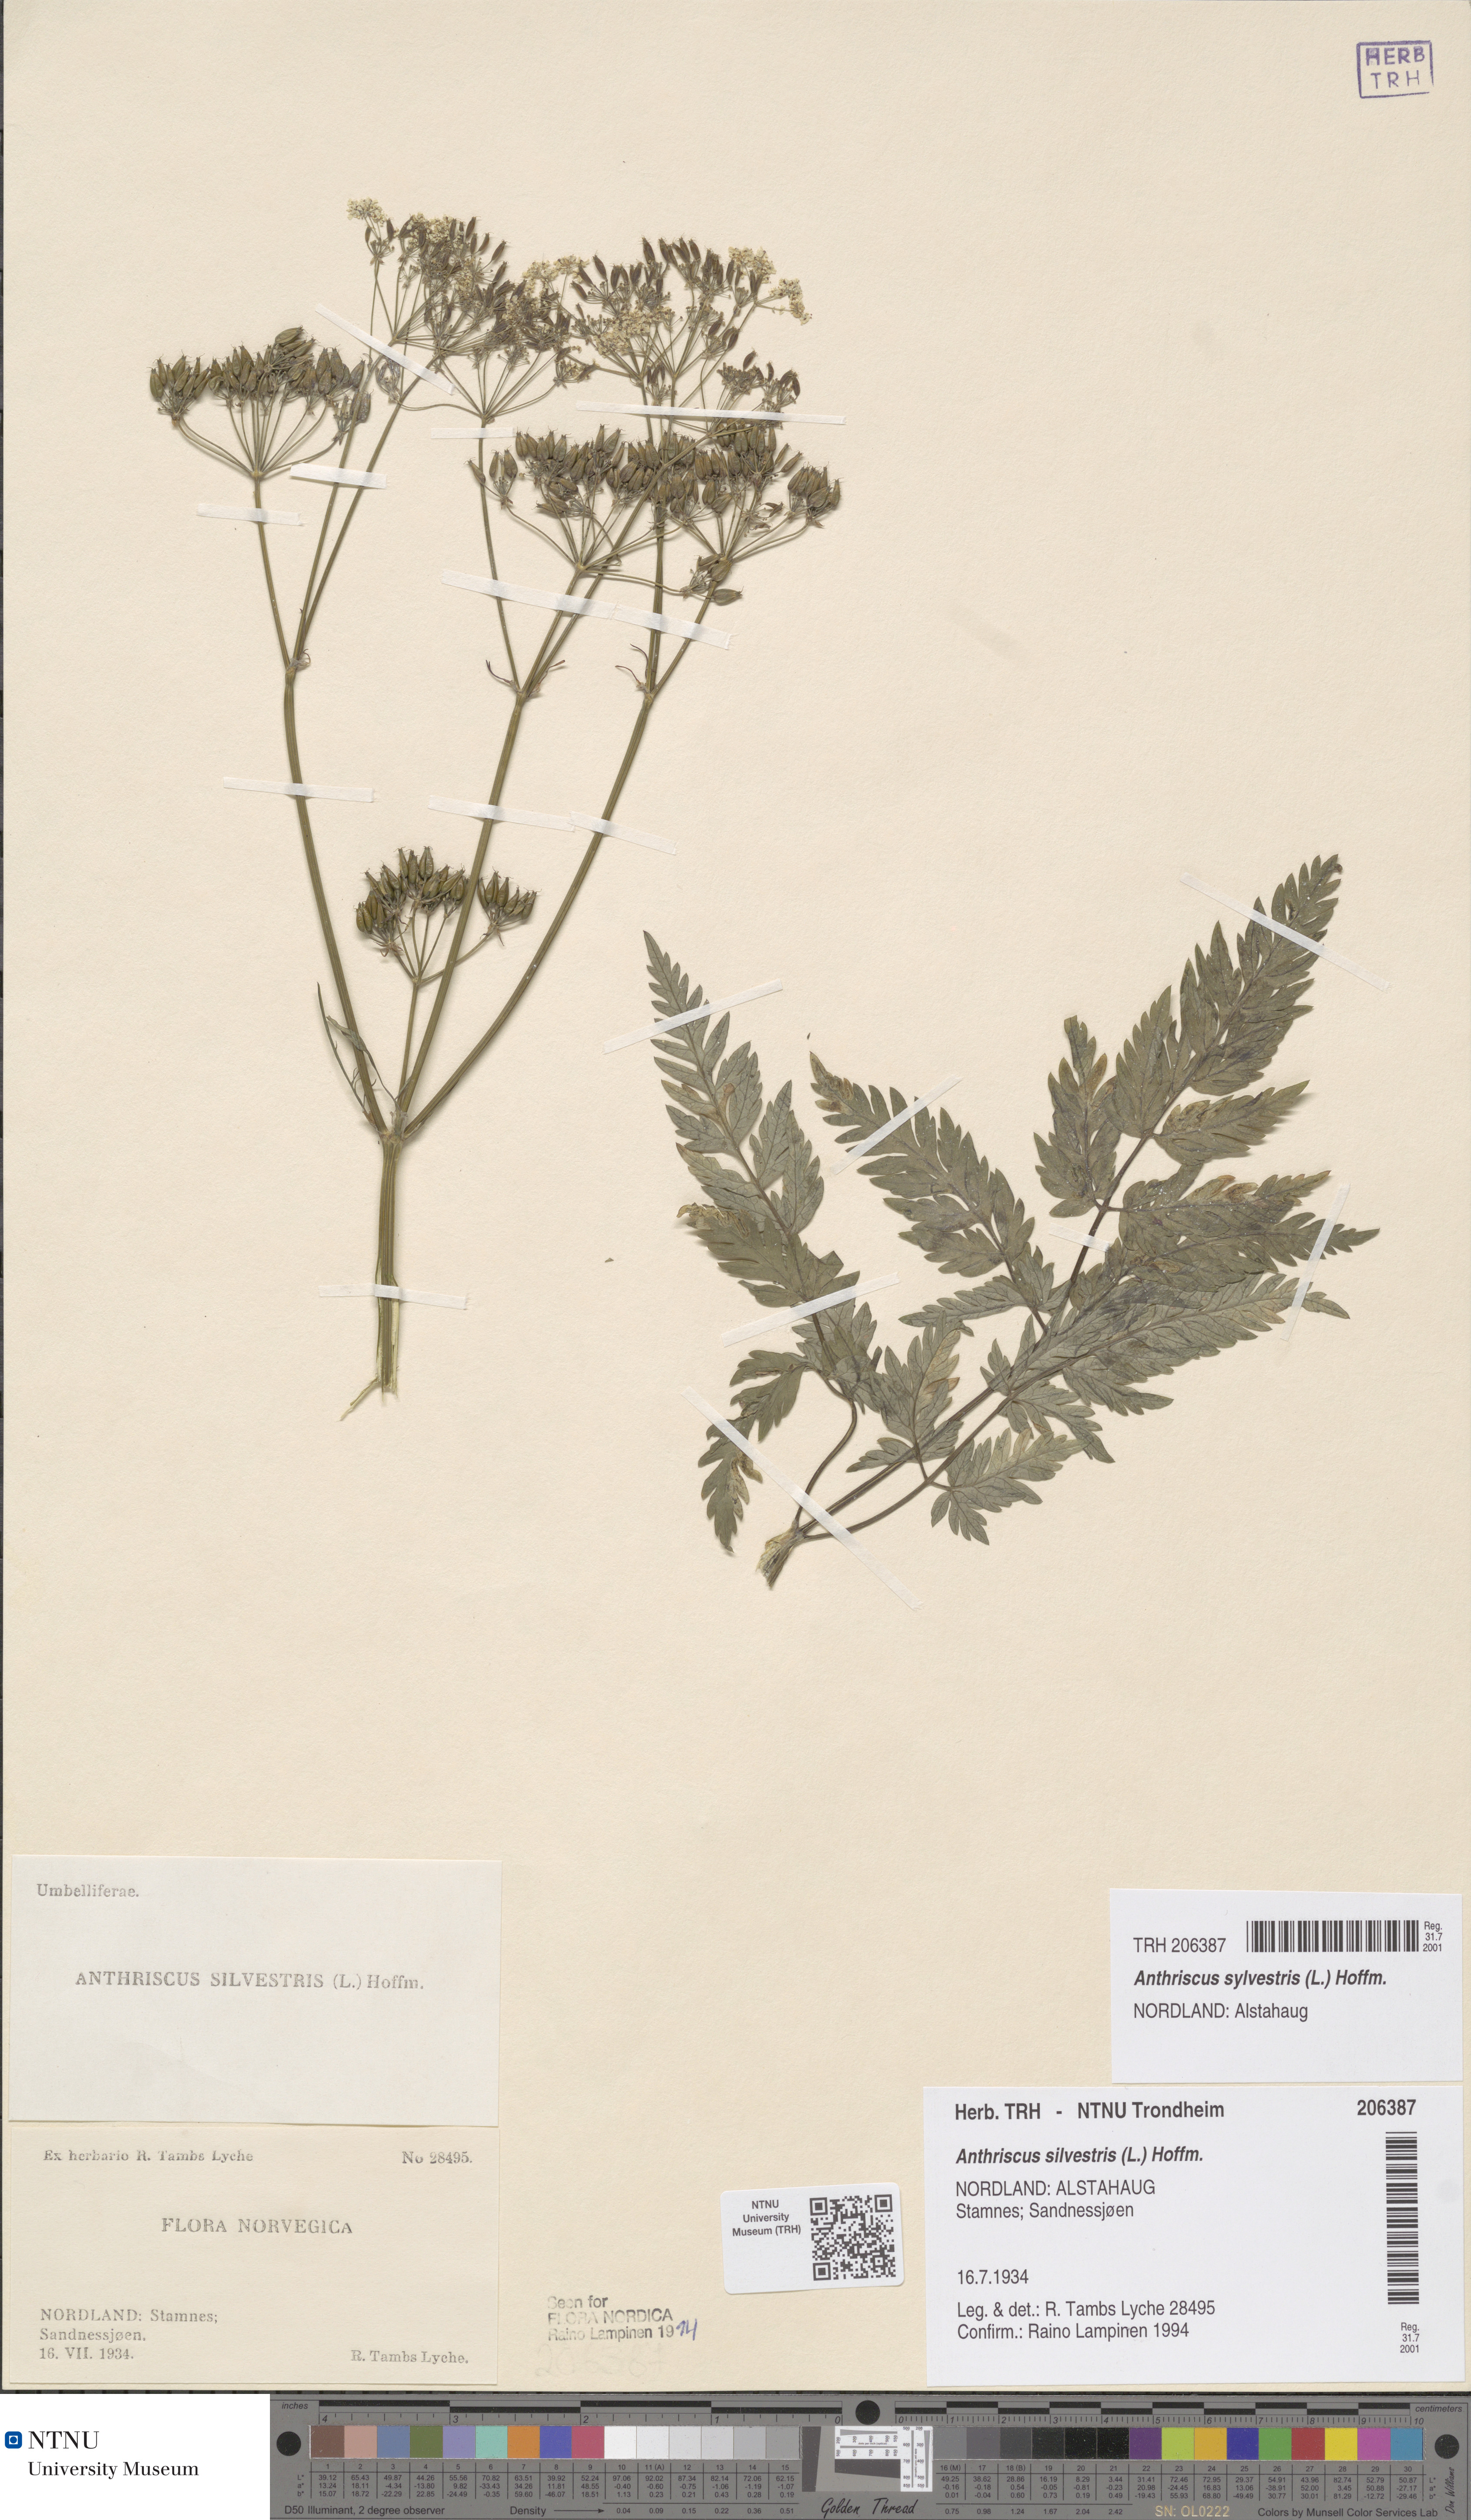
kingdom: Plantae
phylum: Tracheophyta
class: Magnoliopsida
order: Apiales
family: Apiaceae
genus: Anthriscus
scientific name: Anthriscus sylvestris
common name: Cow parsley
